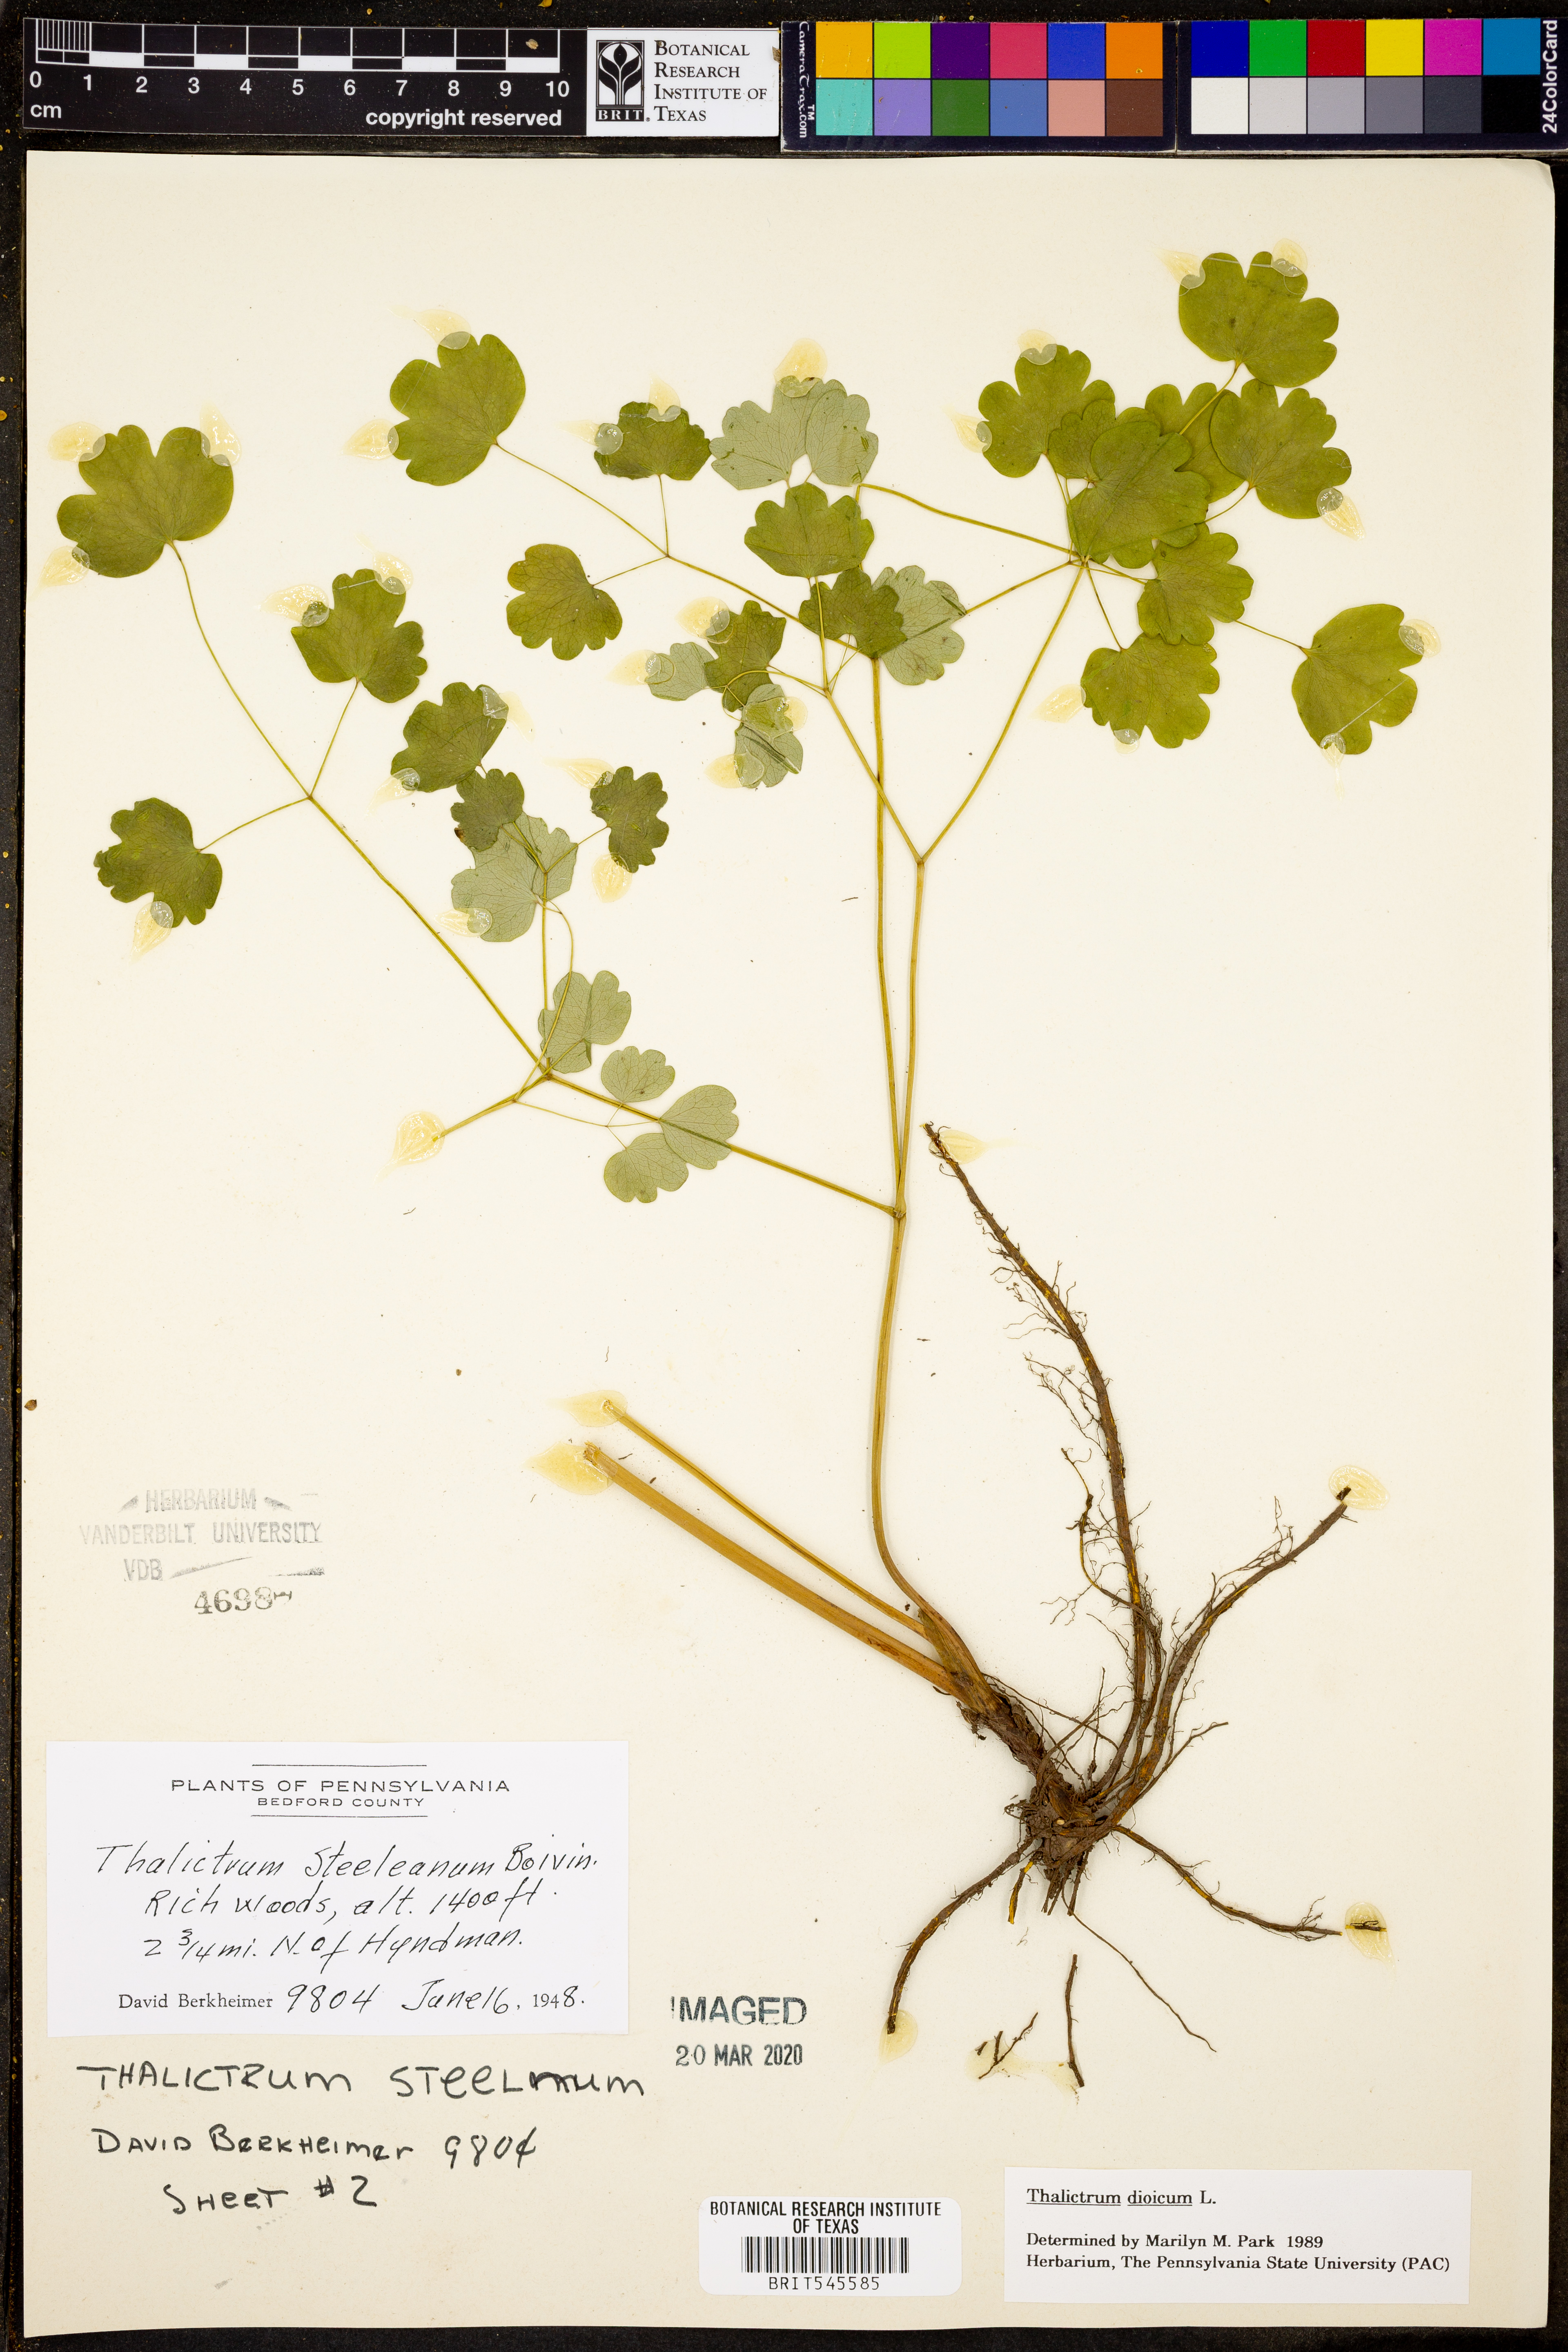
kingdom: Plantae
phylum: Tracheophyta
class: Magnoliopsida
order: Ranunculales
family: Ranunculaceae
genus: Thalictrum
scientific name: Thalictrum dioicum
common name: Early meadow-rue
